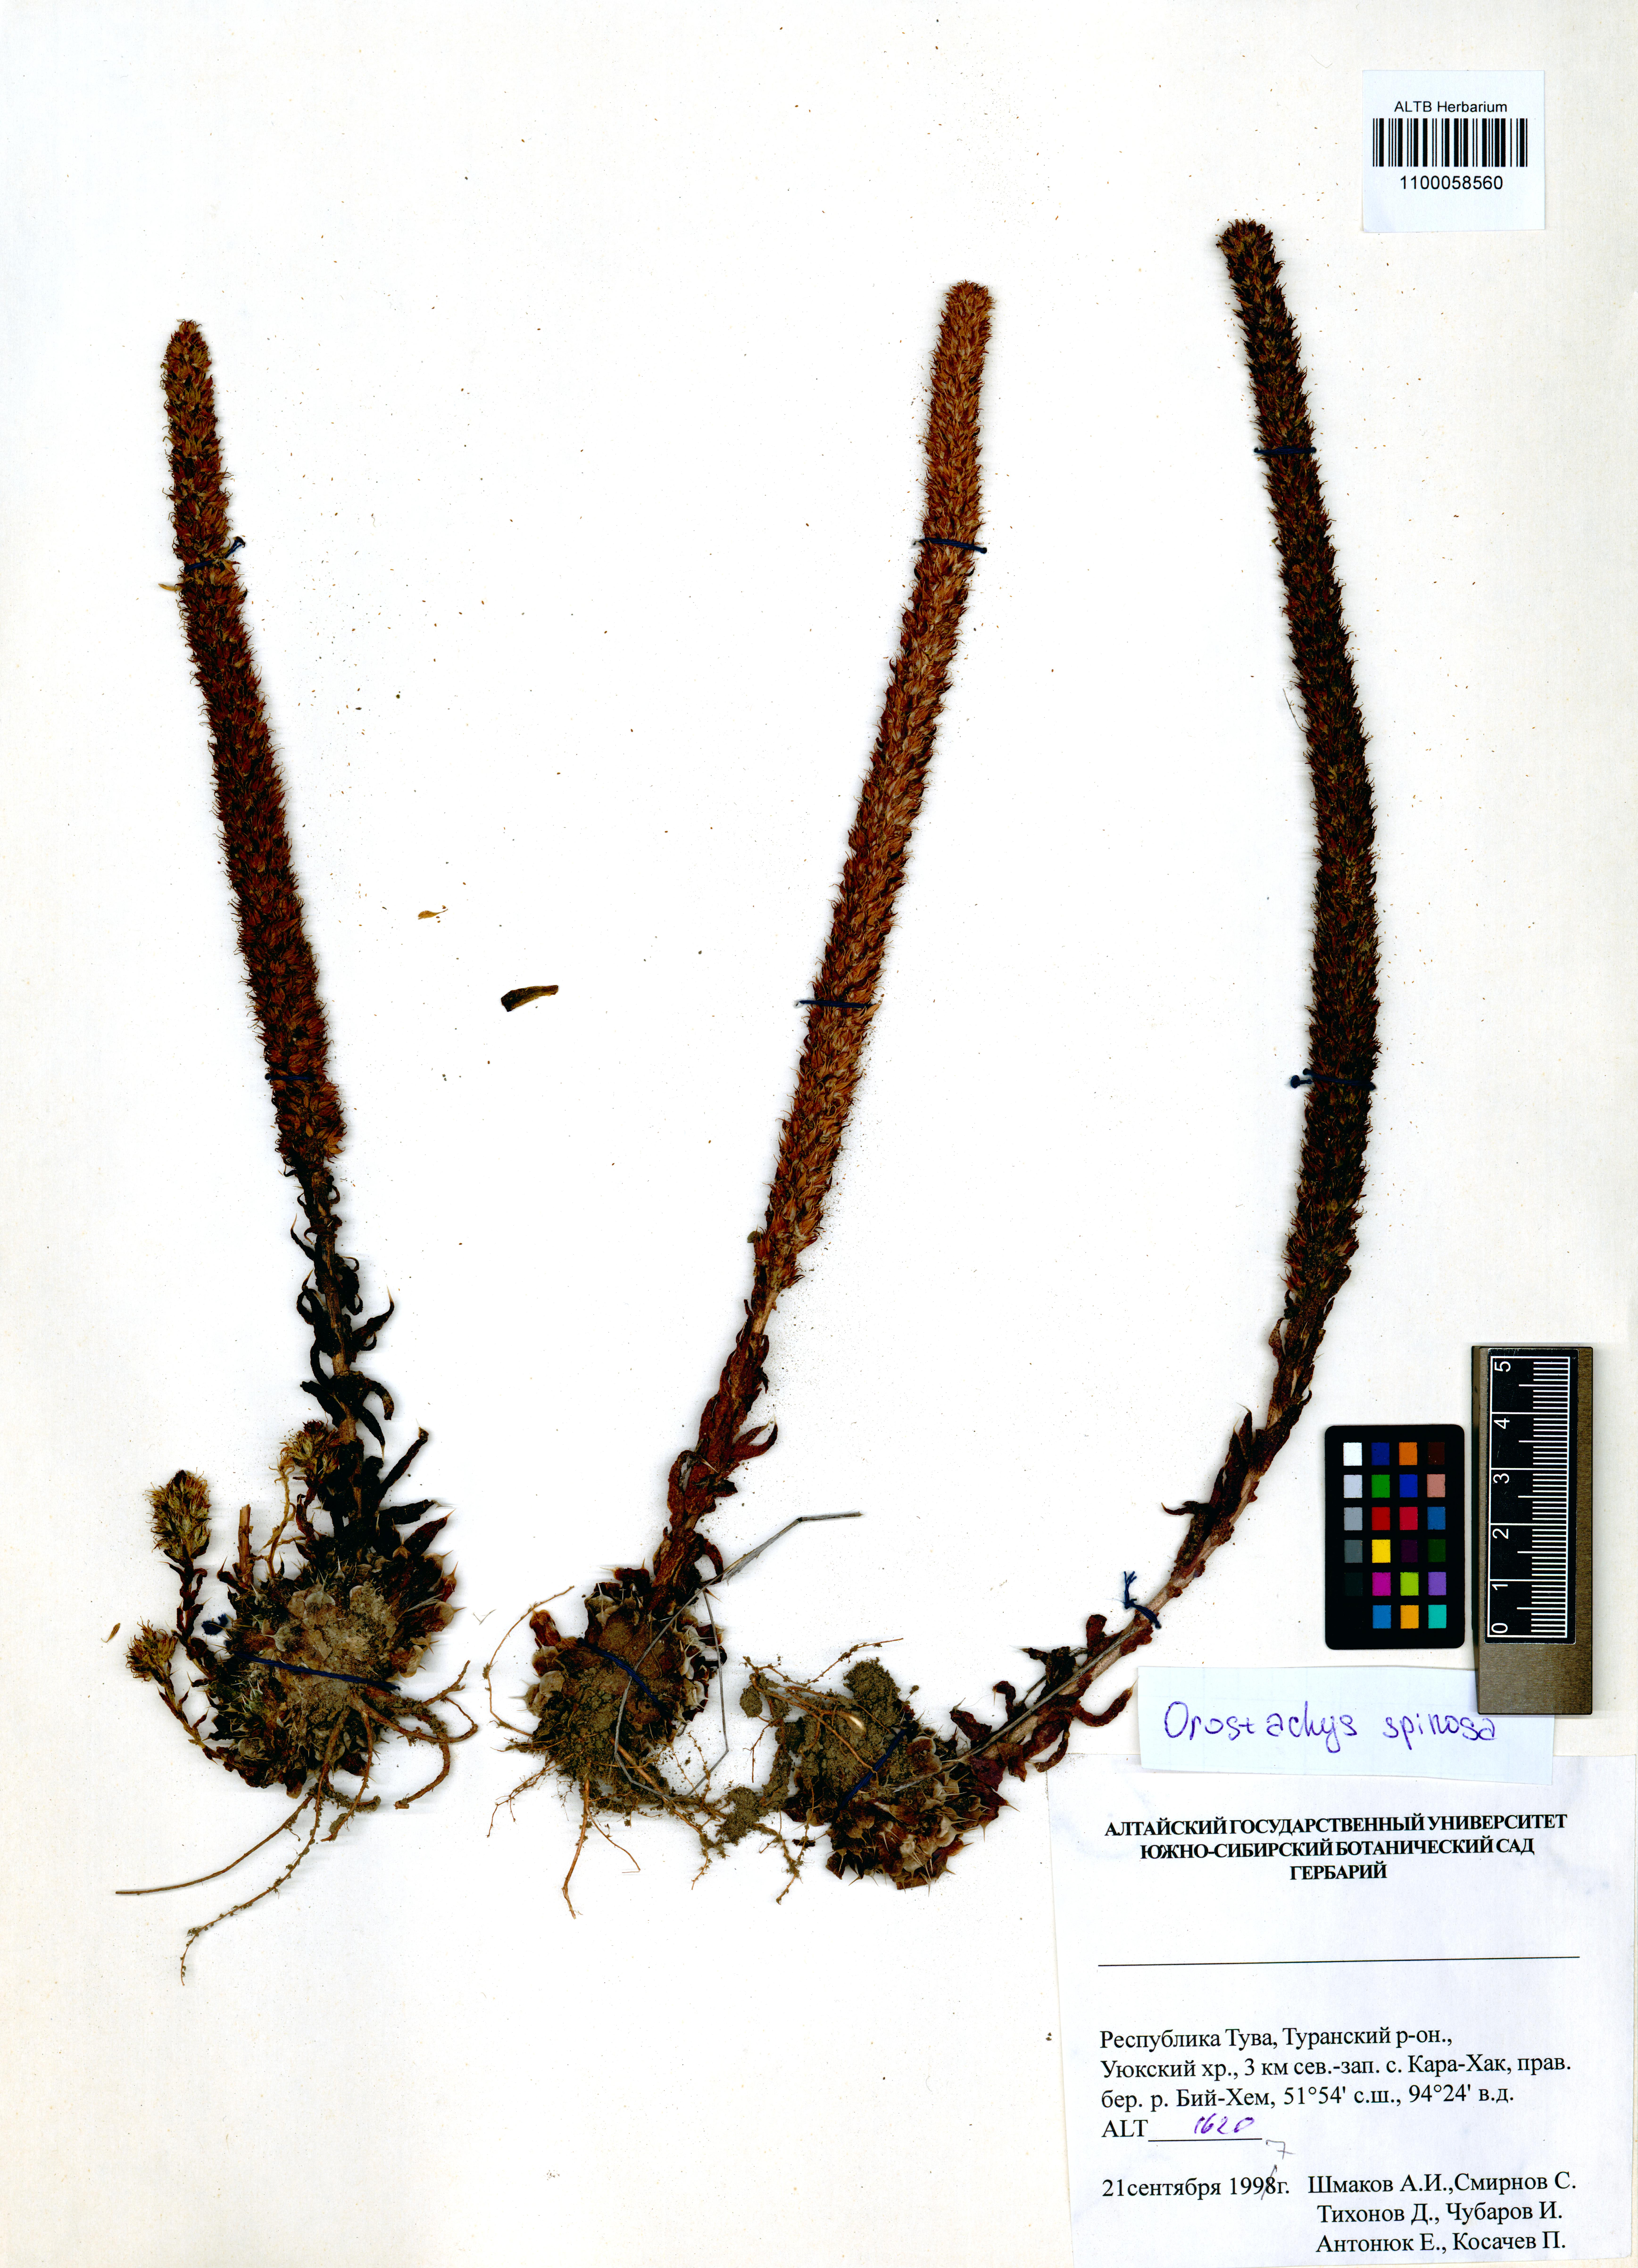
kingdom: Plantae
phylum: Tracheophyta
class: Magnoliopsida
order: Saxifragales
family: Crassulaceae
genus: Orostachys
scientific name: Orostachys spinosa
